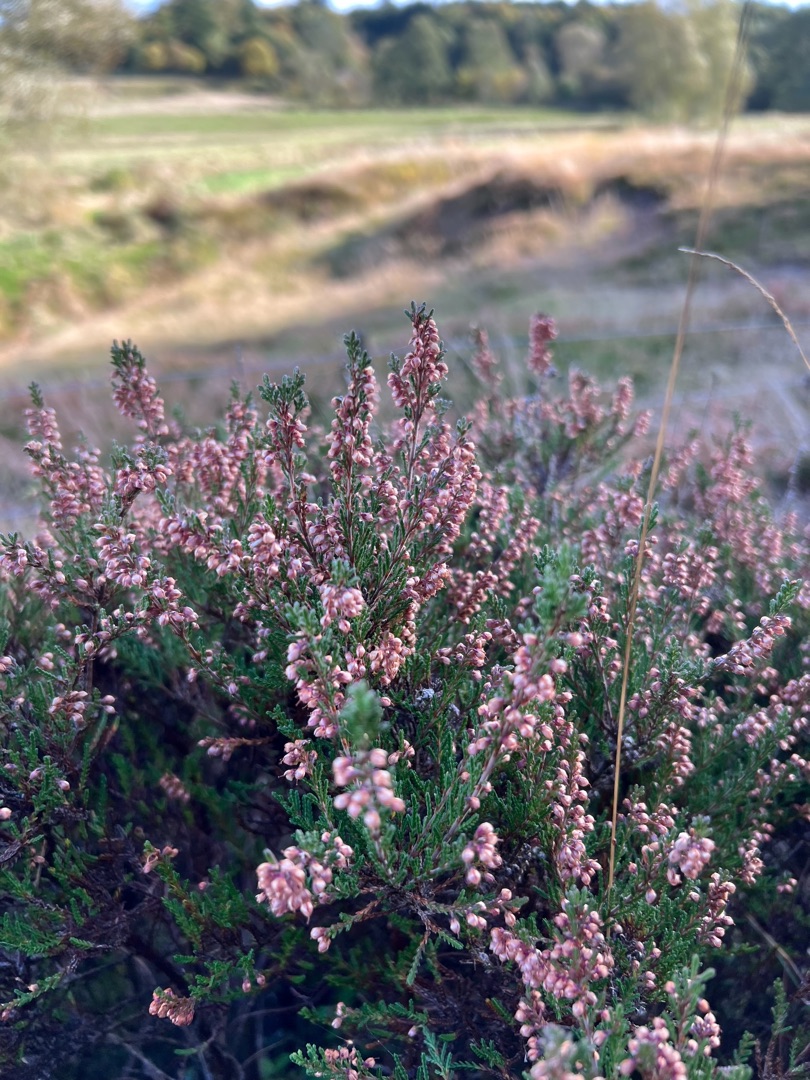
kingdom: Plantae
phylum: Tracheophyta
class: Magnoliopsida
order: Ericales
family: Ericaceae
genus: Calluna
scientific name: Calluna vulgaris
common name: Hedelyng
